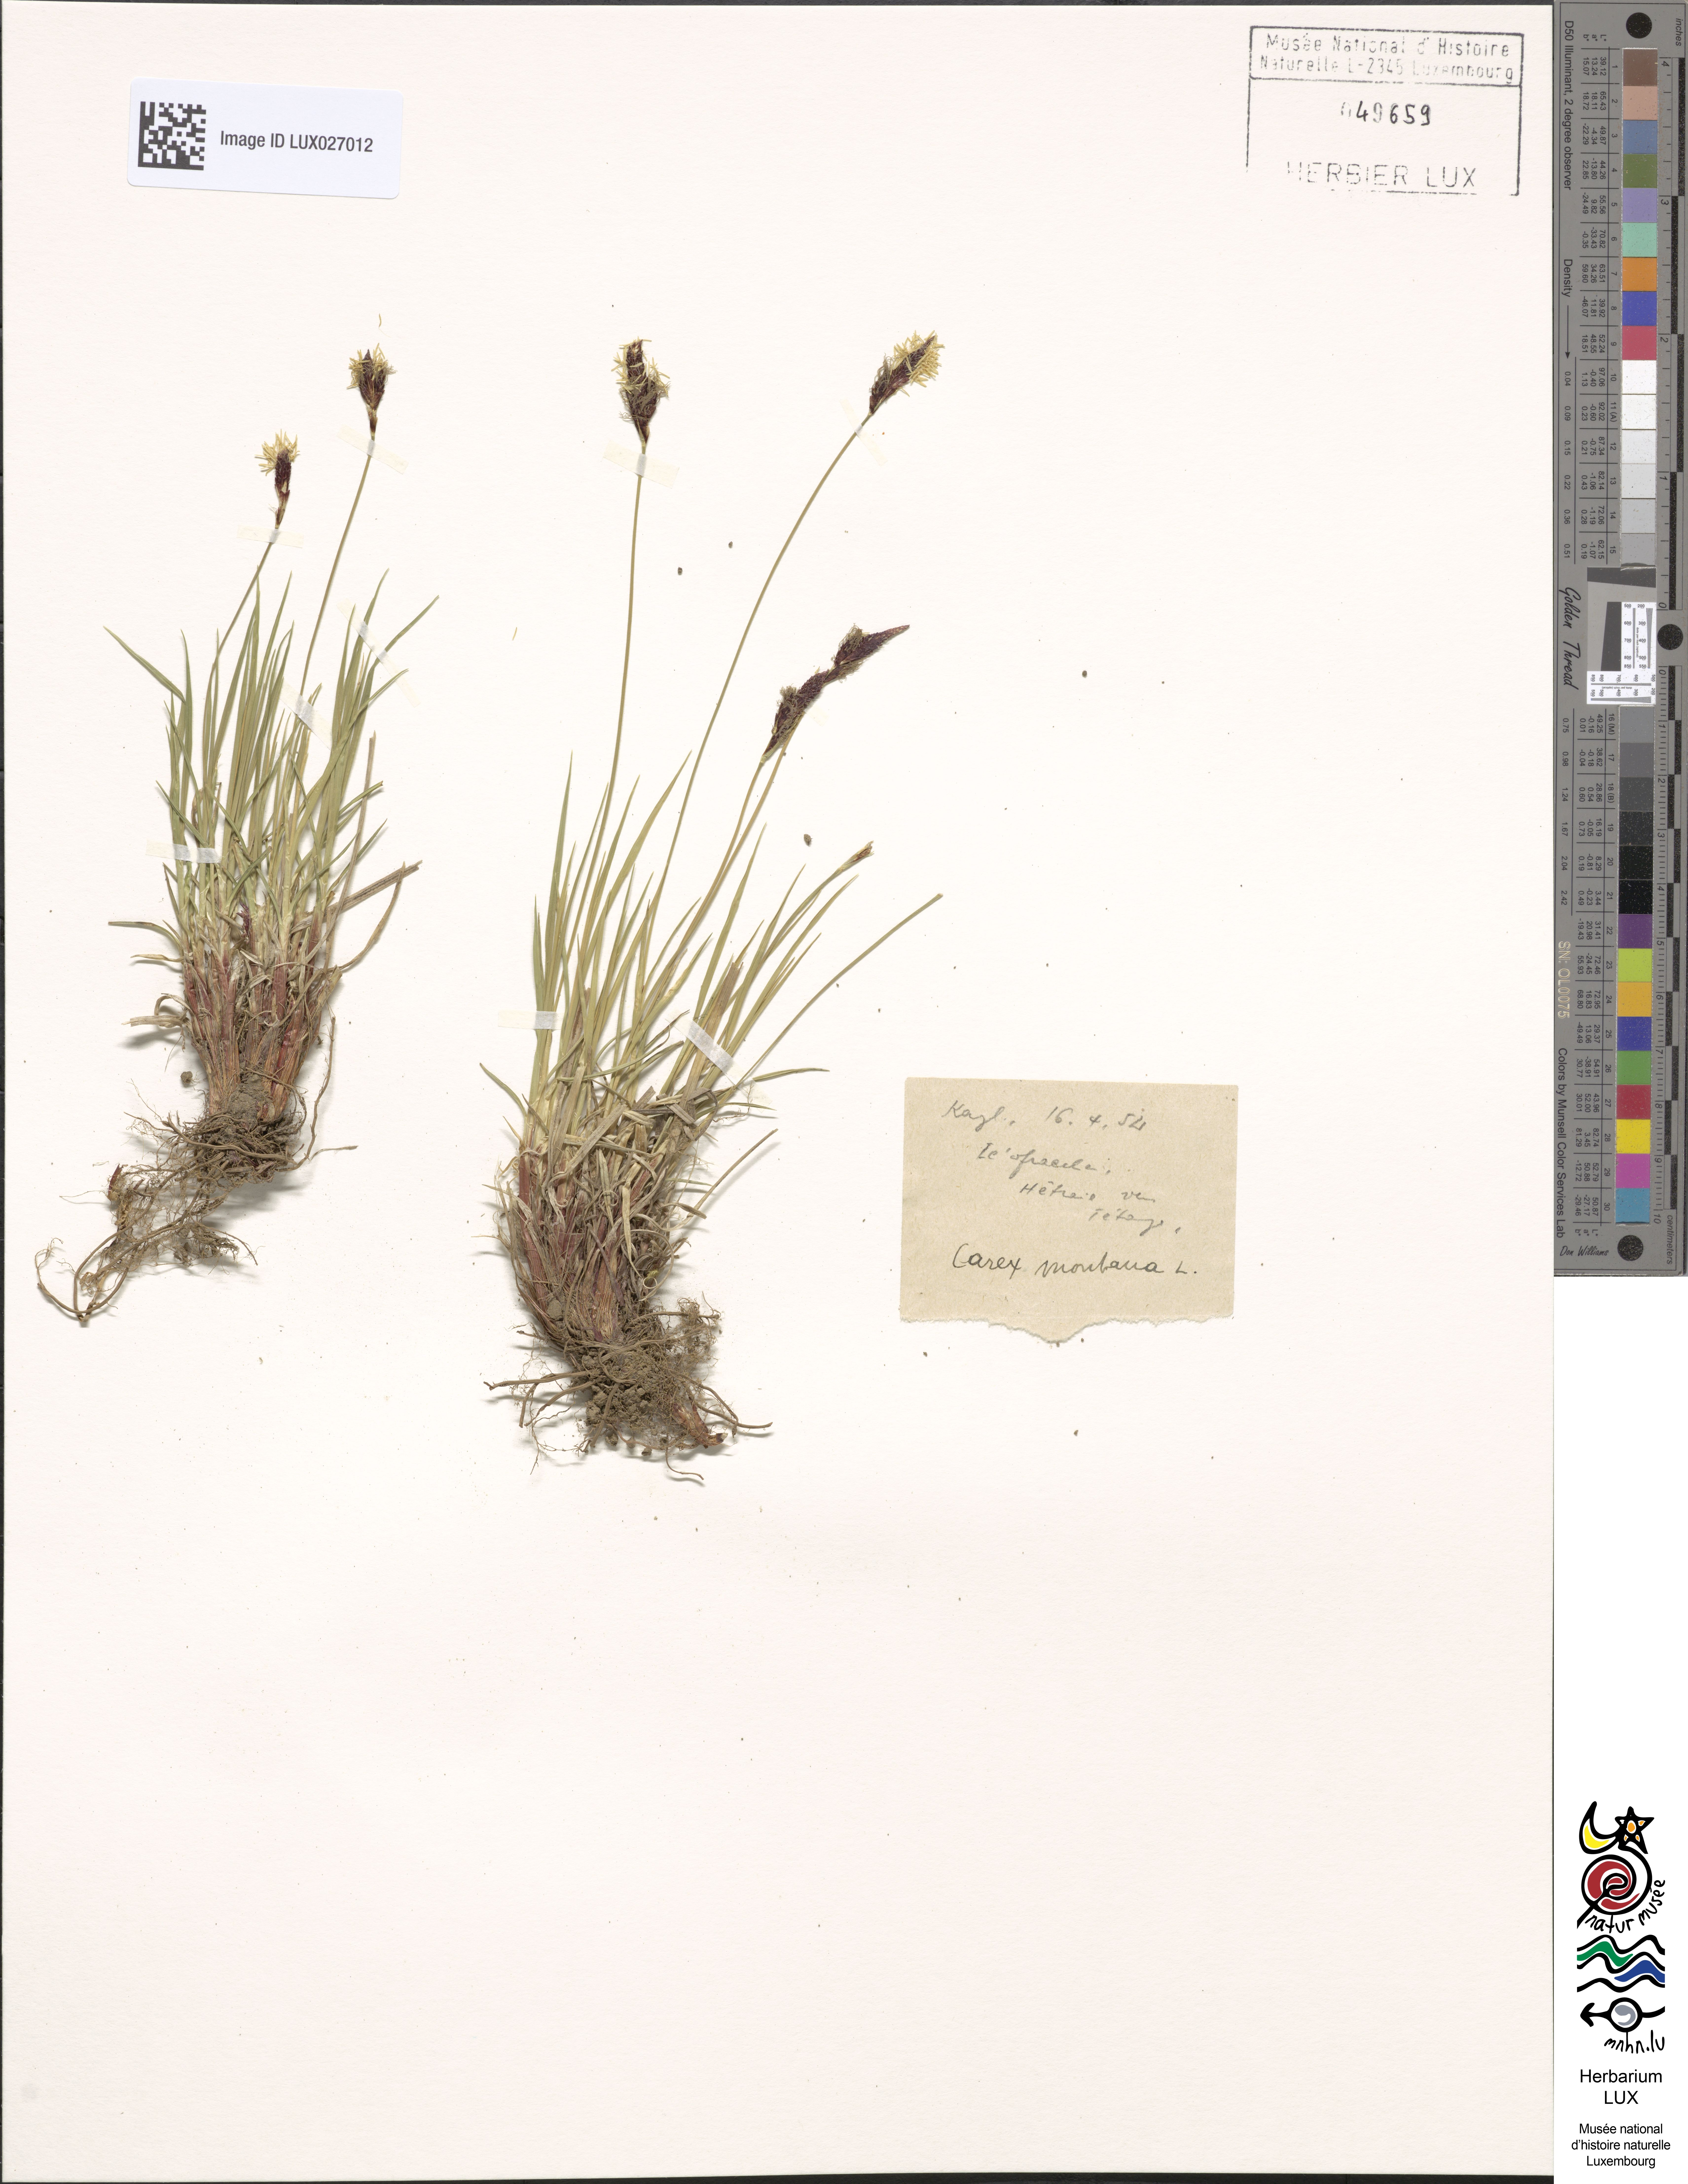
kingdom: Plantae
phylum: Tracheophyta
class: Liliopsida
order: Poales
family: Cyperaceae
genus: Carex
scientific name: Carex montana
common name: Soft-leaved sedge
